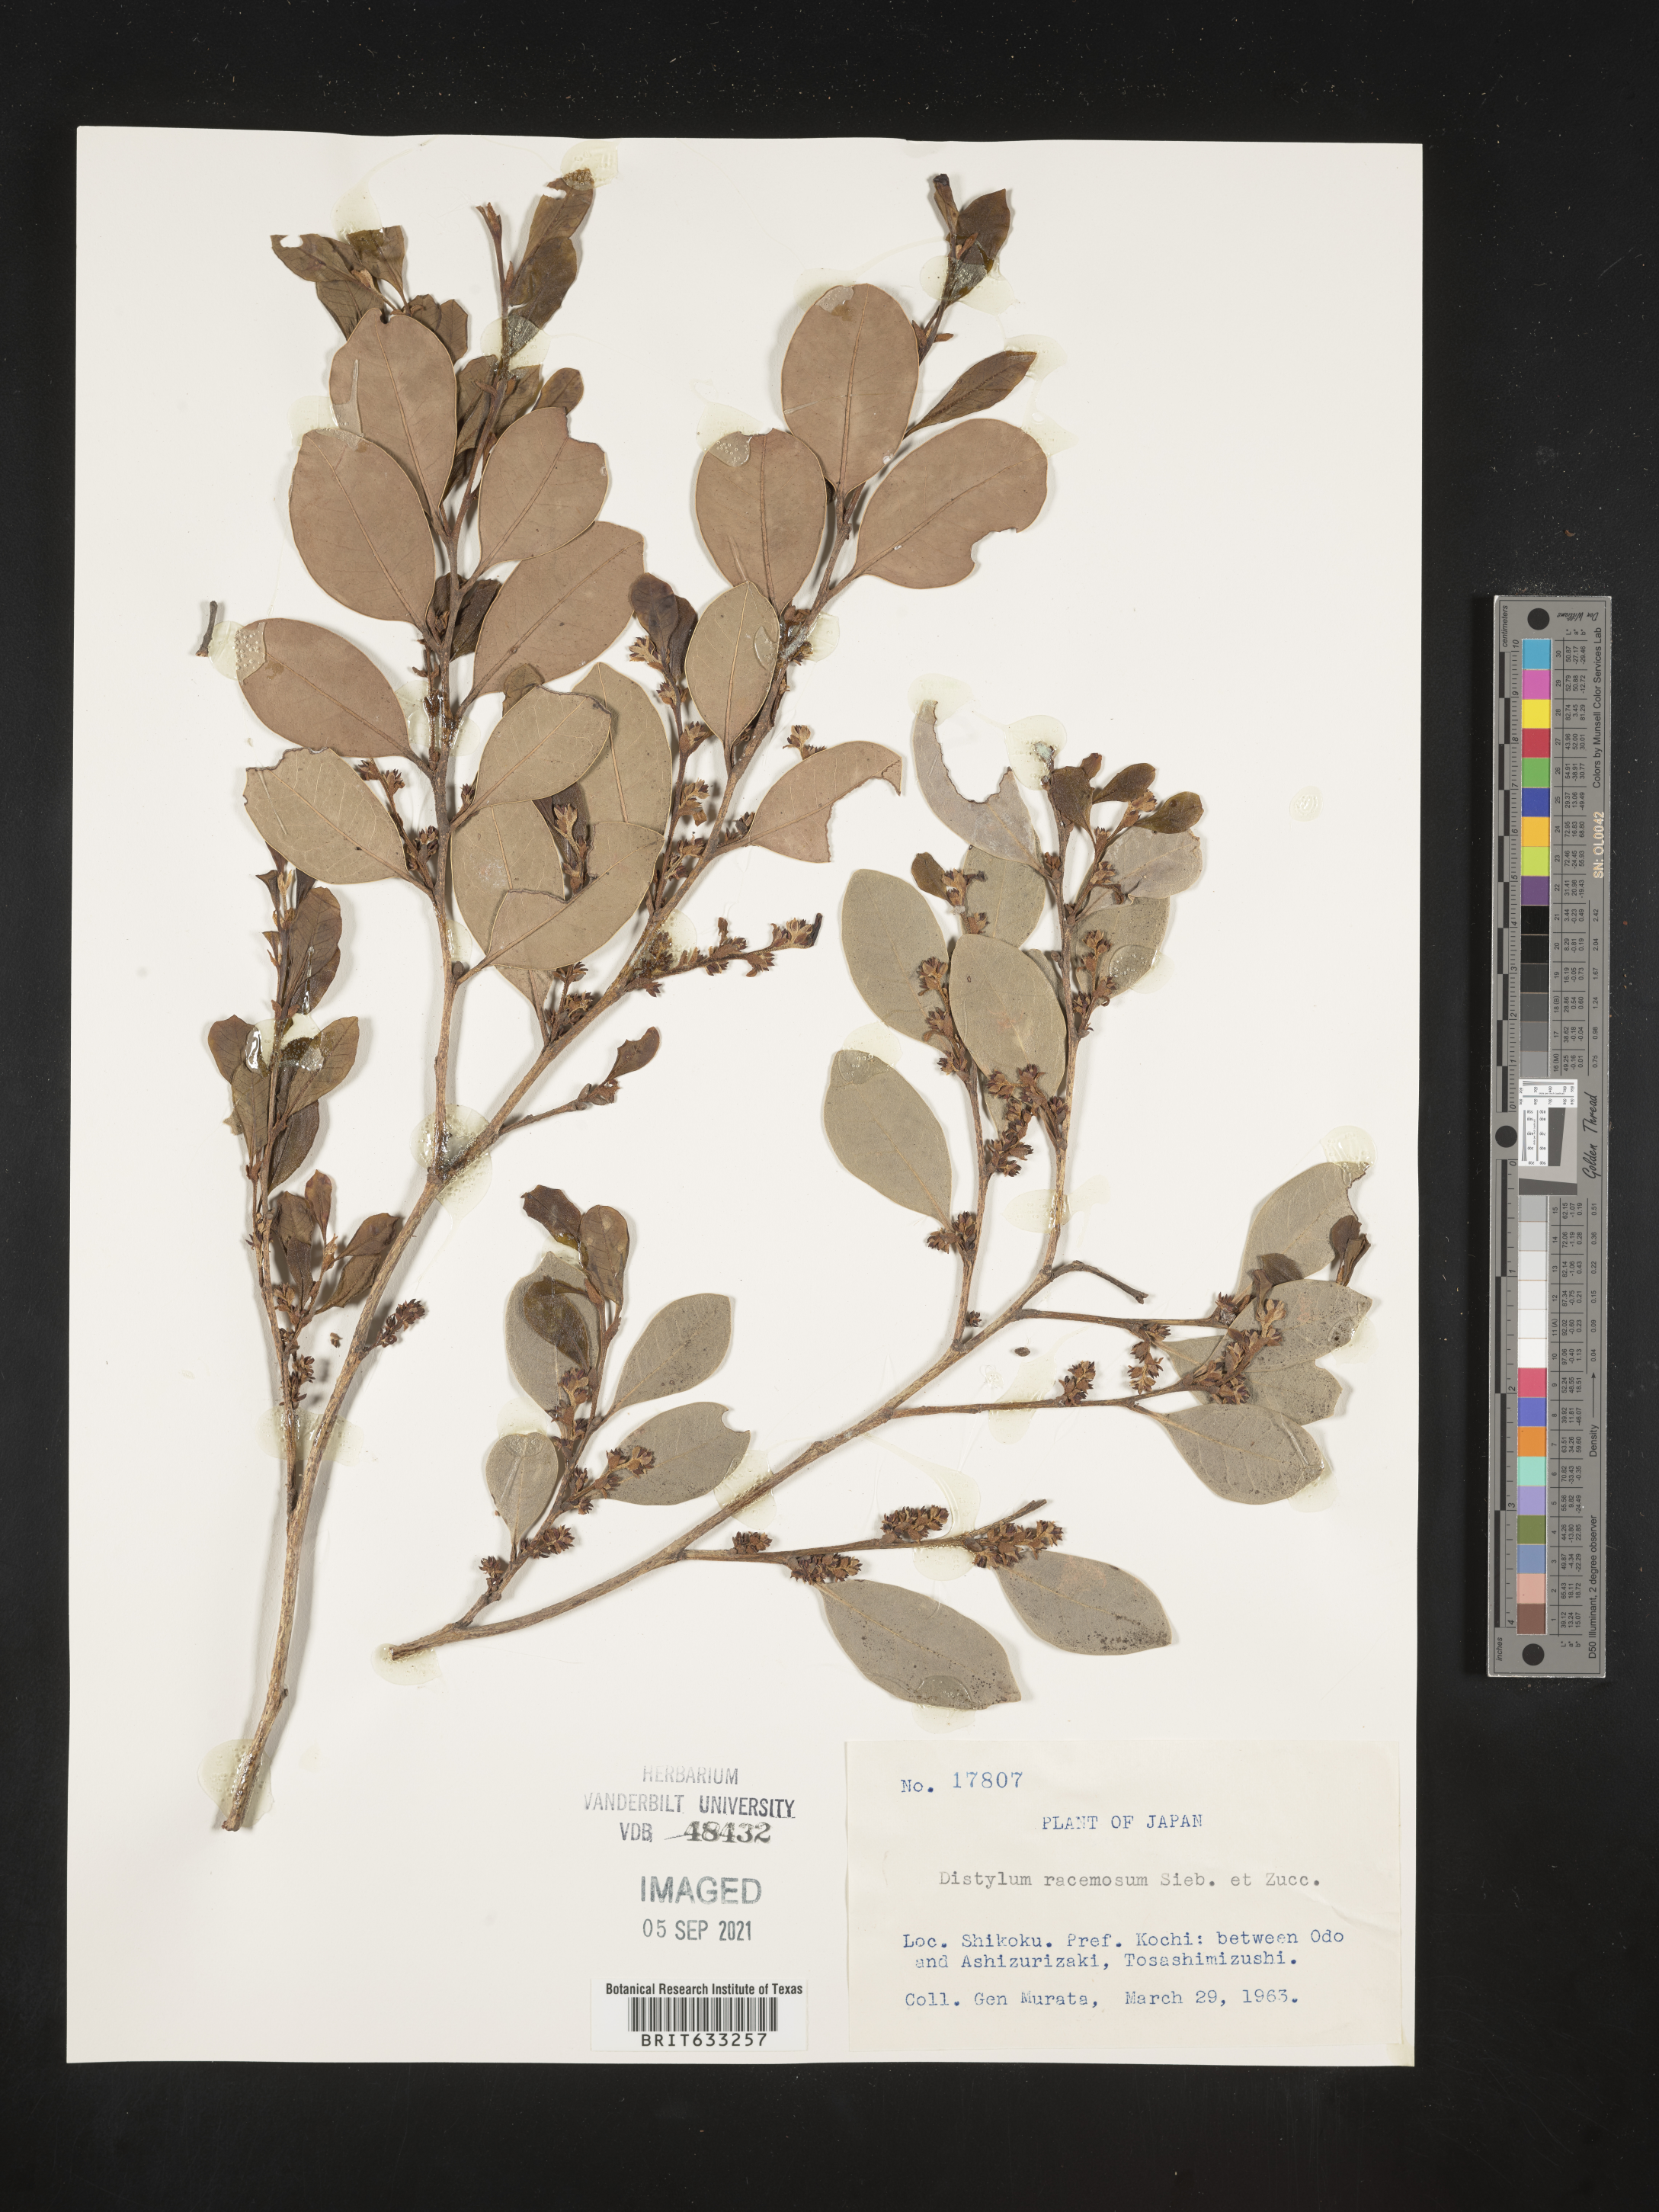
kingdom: Plantae
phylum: Tracheophyta
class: Magnoliopsida
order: Saxifragales
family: Hamamelidaceae
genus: Distylium
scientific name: Distylium racemosum
